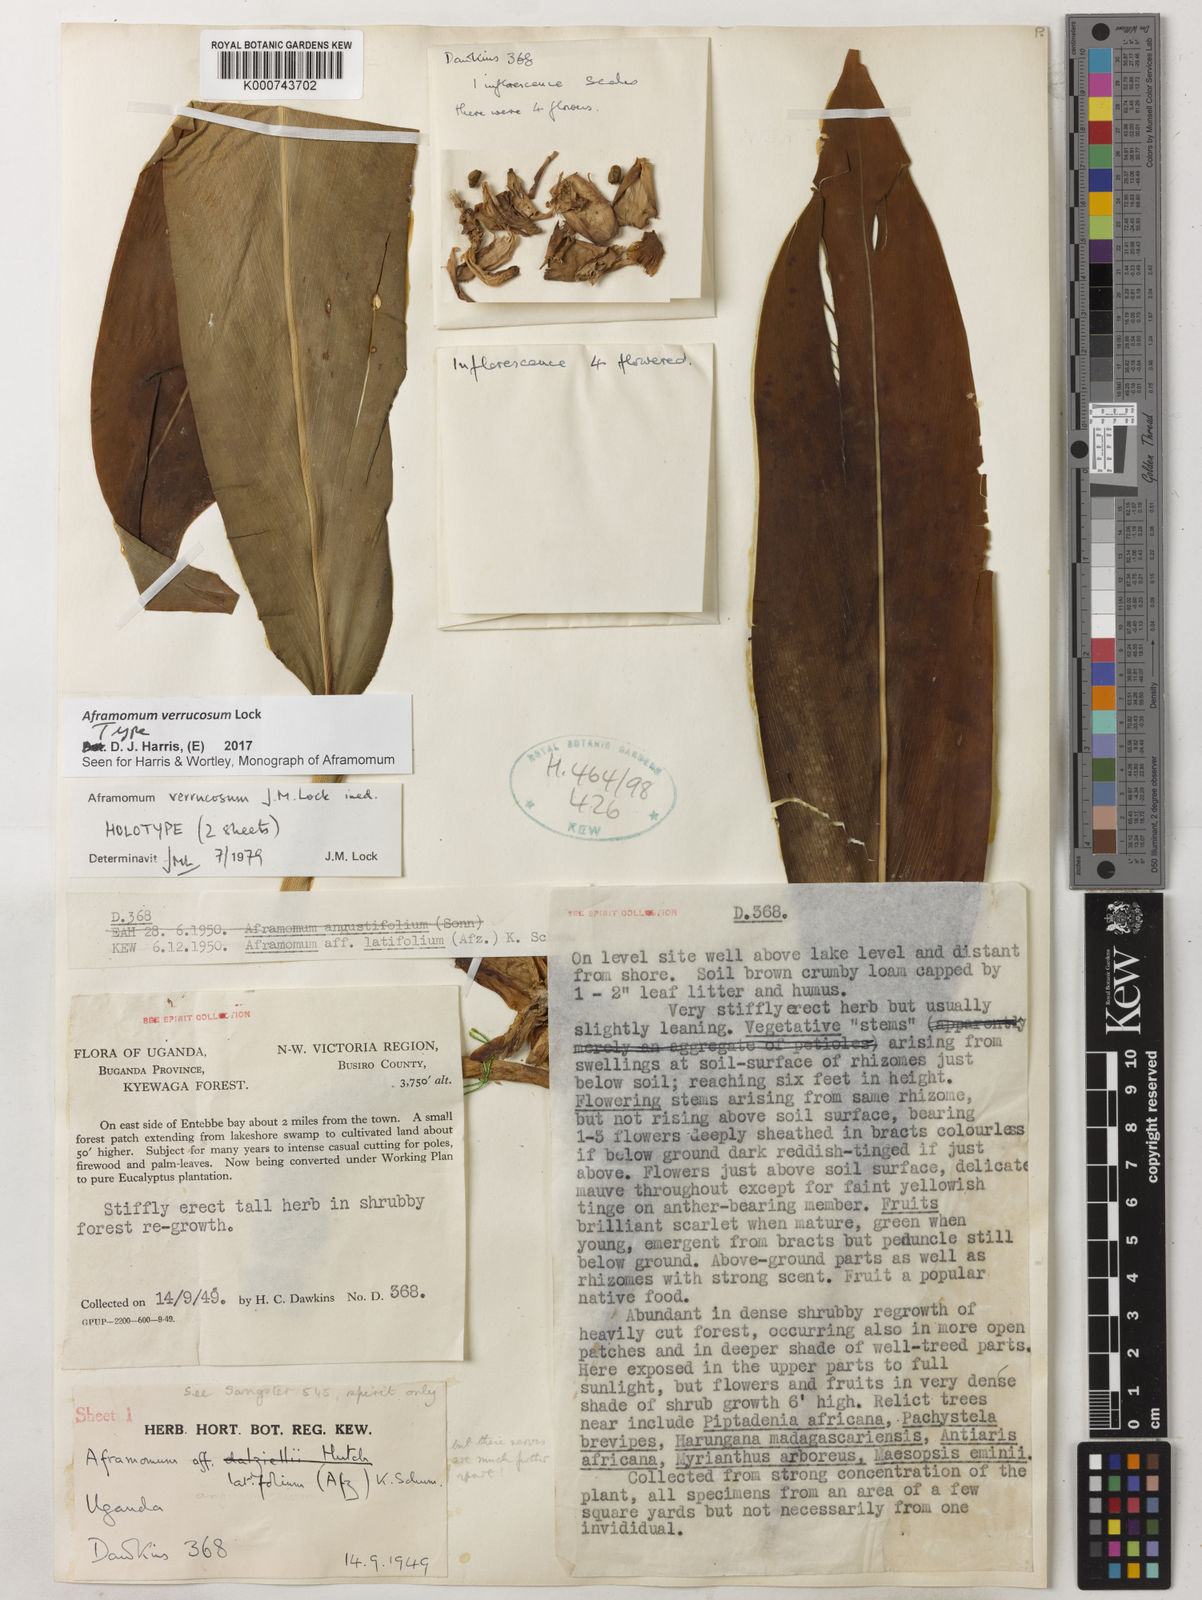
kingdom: Plantae
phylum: Tracheophyta
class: Liliopsida
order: Zingiberales
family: Zingiberaceae
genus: Aframomum
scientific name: Aframomum verrucosum
